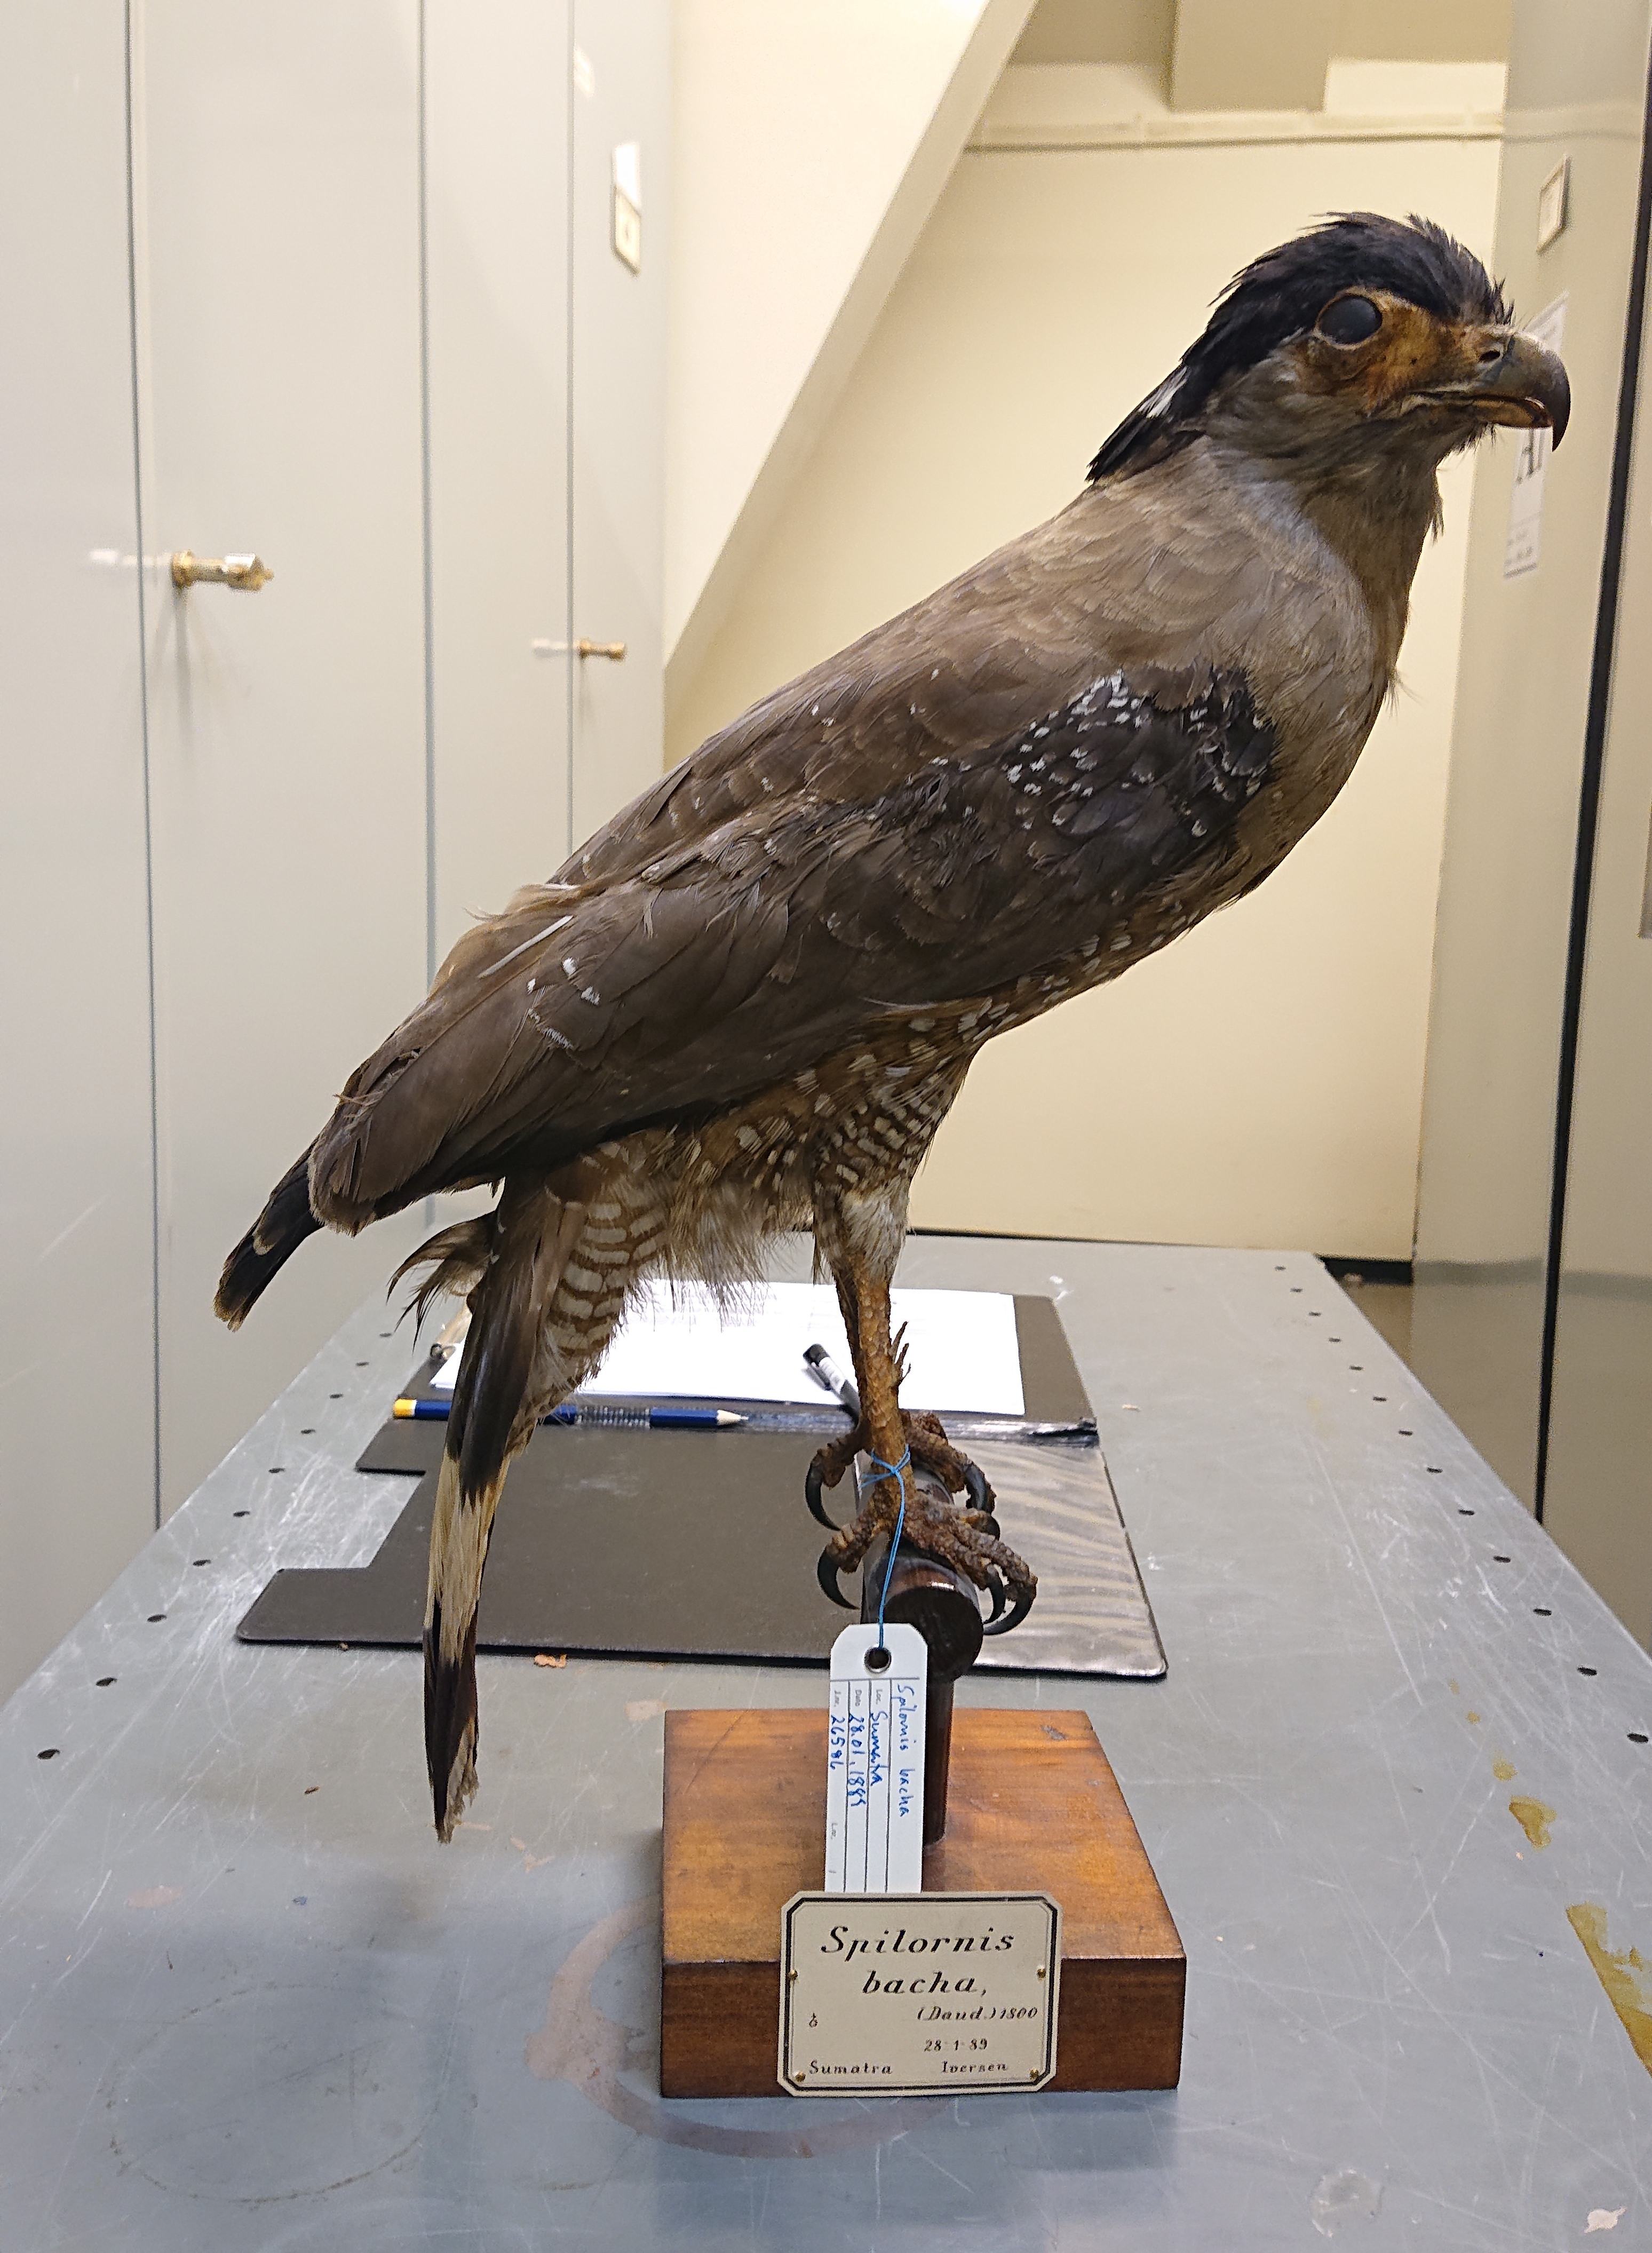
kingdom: Animalia
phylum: Chordata
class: Aves
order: Accipitriformes
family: Accipitridae
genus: Spilornis
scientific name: Spilornis cheela
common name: Crested serpent eagle
